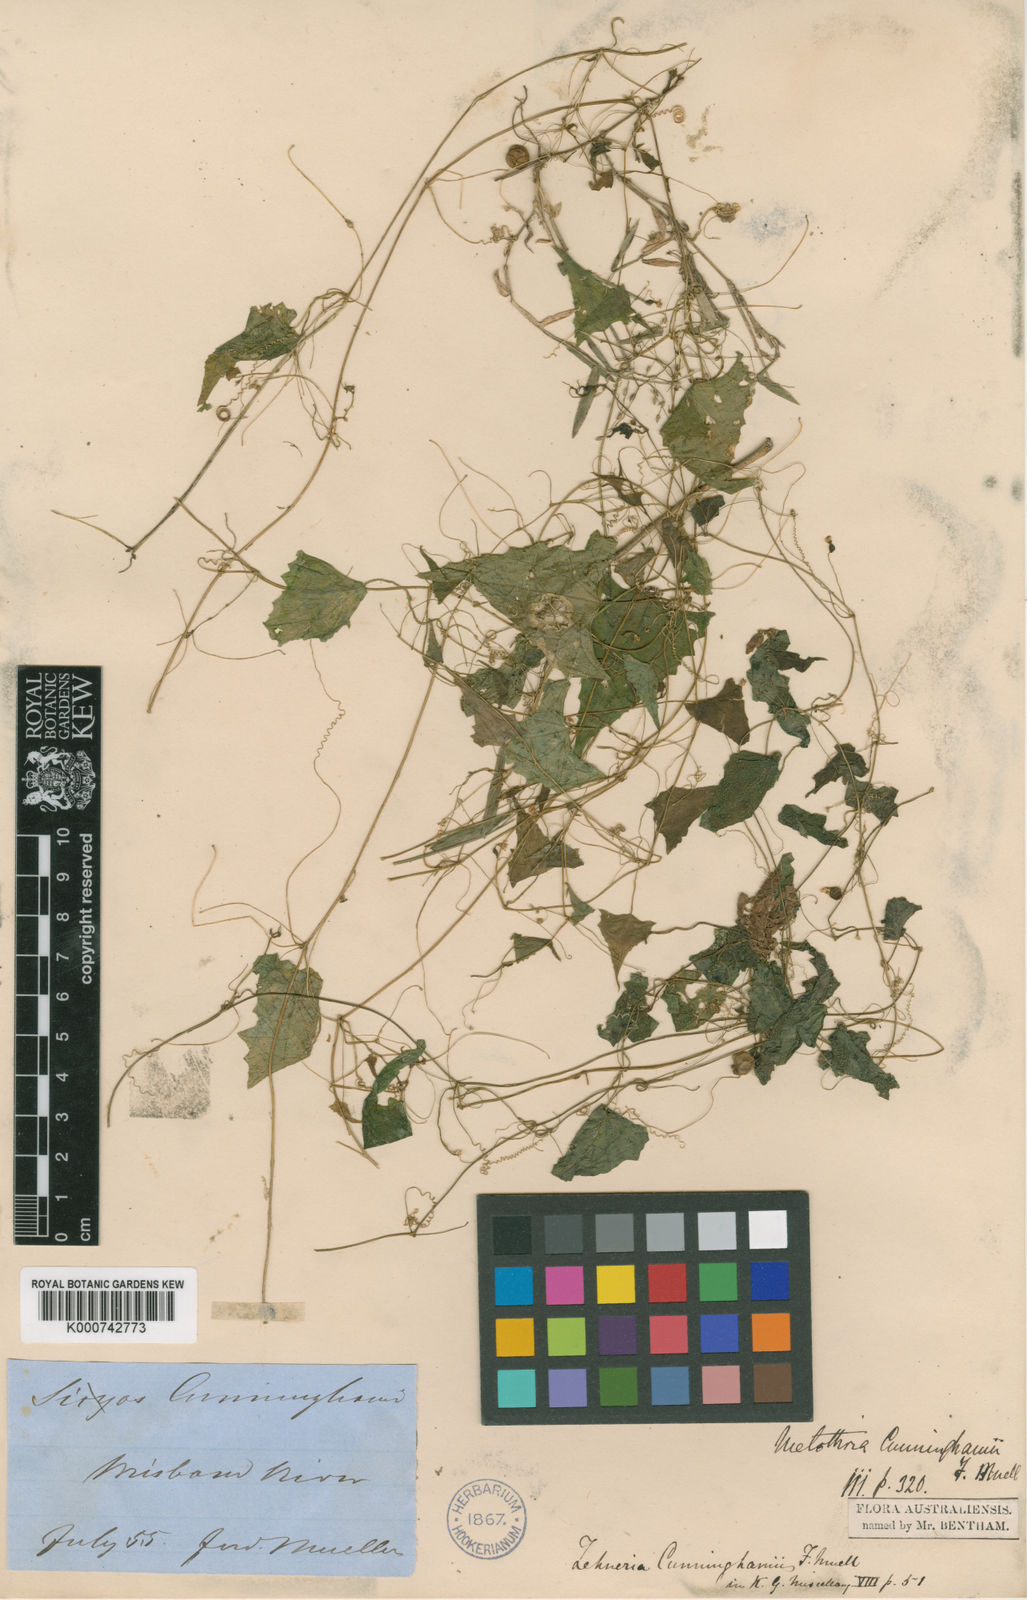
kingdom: Plantae
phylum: Tracheophyta
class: Magnoliopsida
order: Cucurbitales
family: Cucurbitaceae
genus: Zehneria
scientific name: Zehneria cunninghamii
